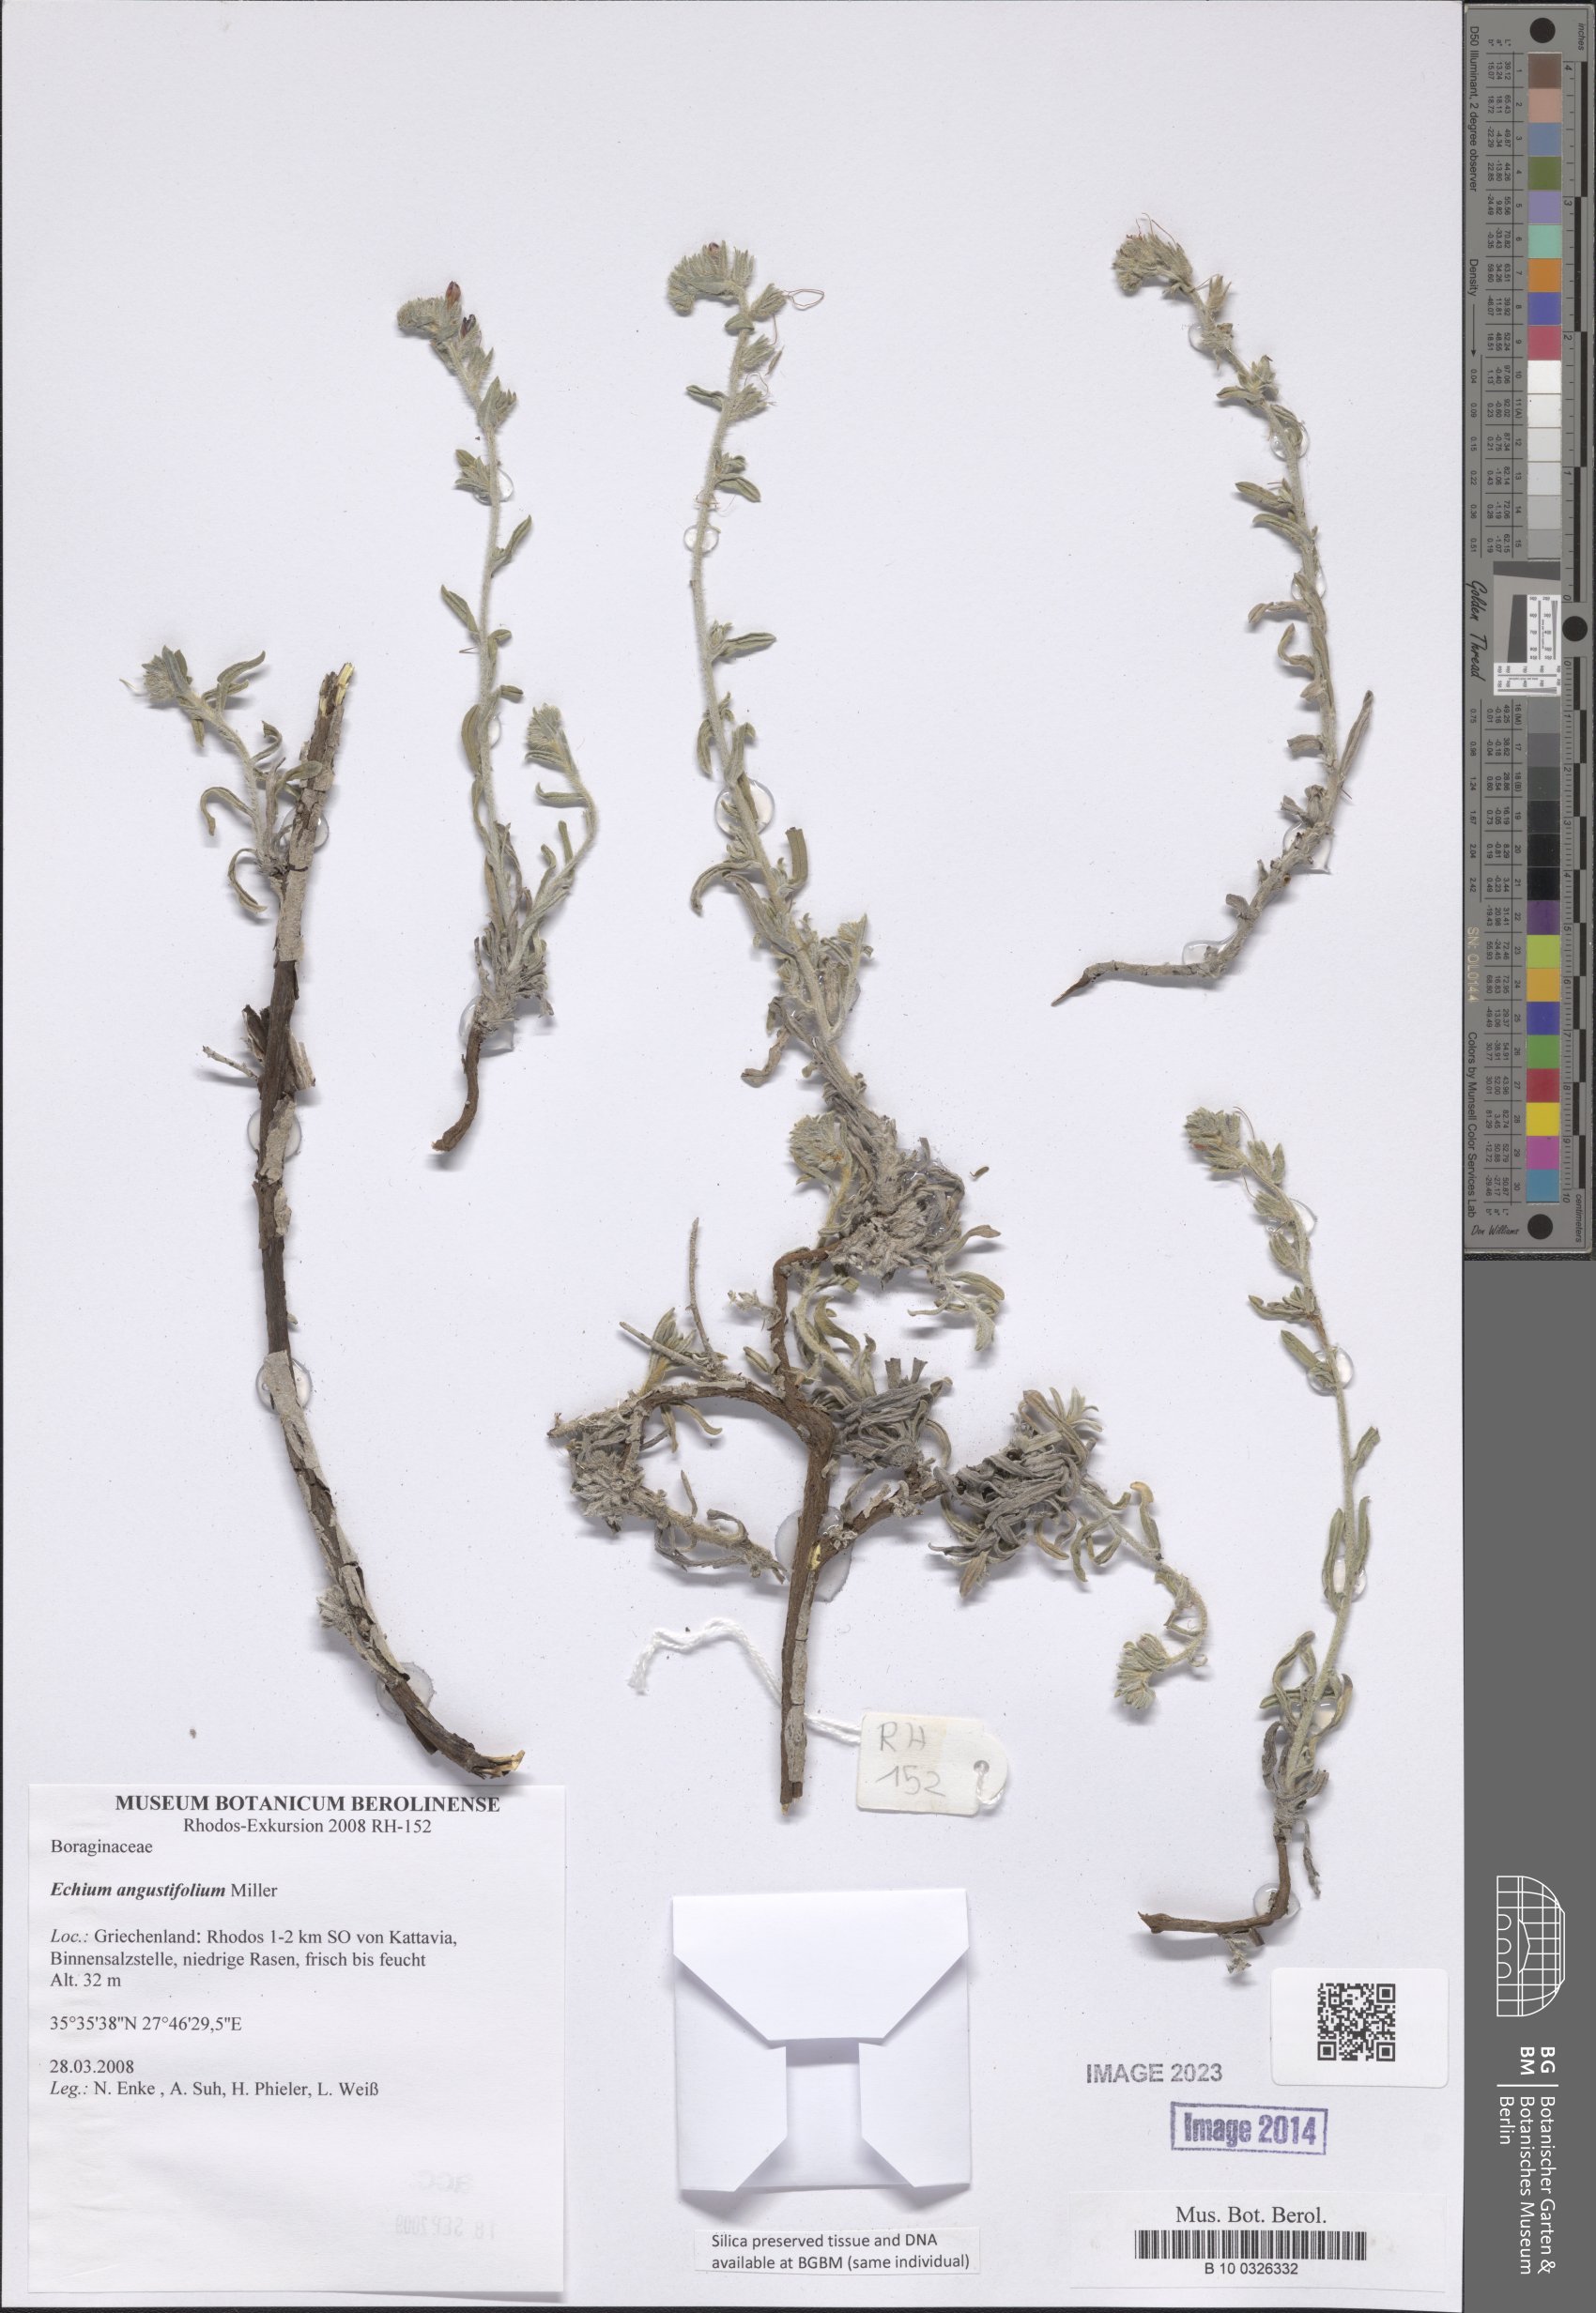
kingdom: Plantae
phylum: Tracheophyta
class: Magnoliopsida
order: Boraginales
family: Boraginaceae
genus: Echium
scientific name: Echium angustifolium
